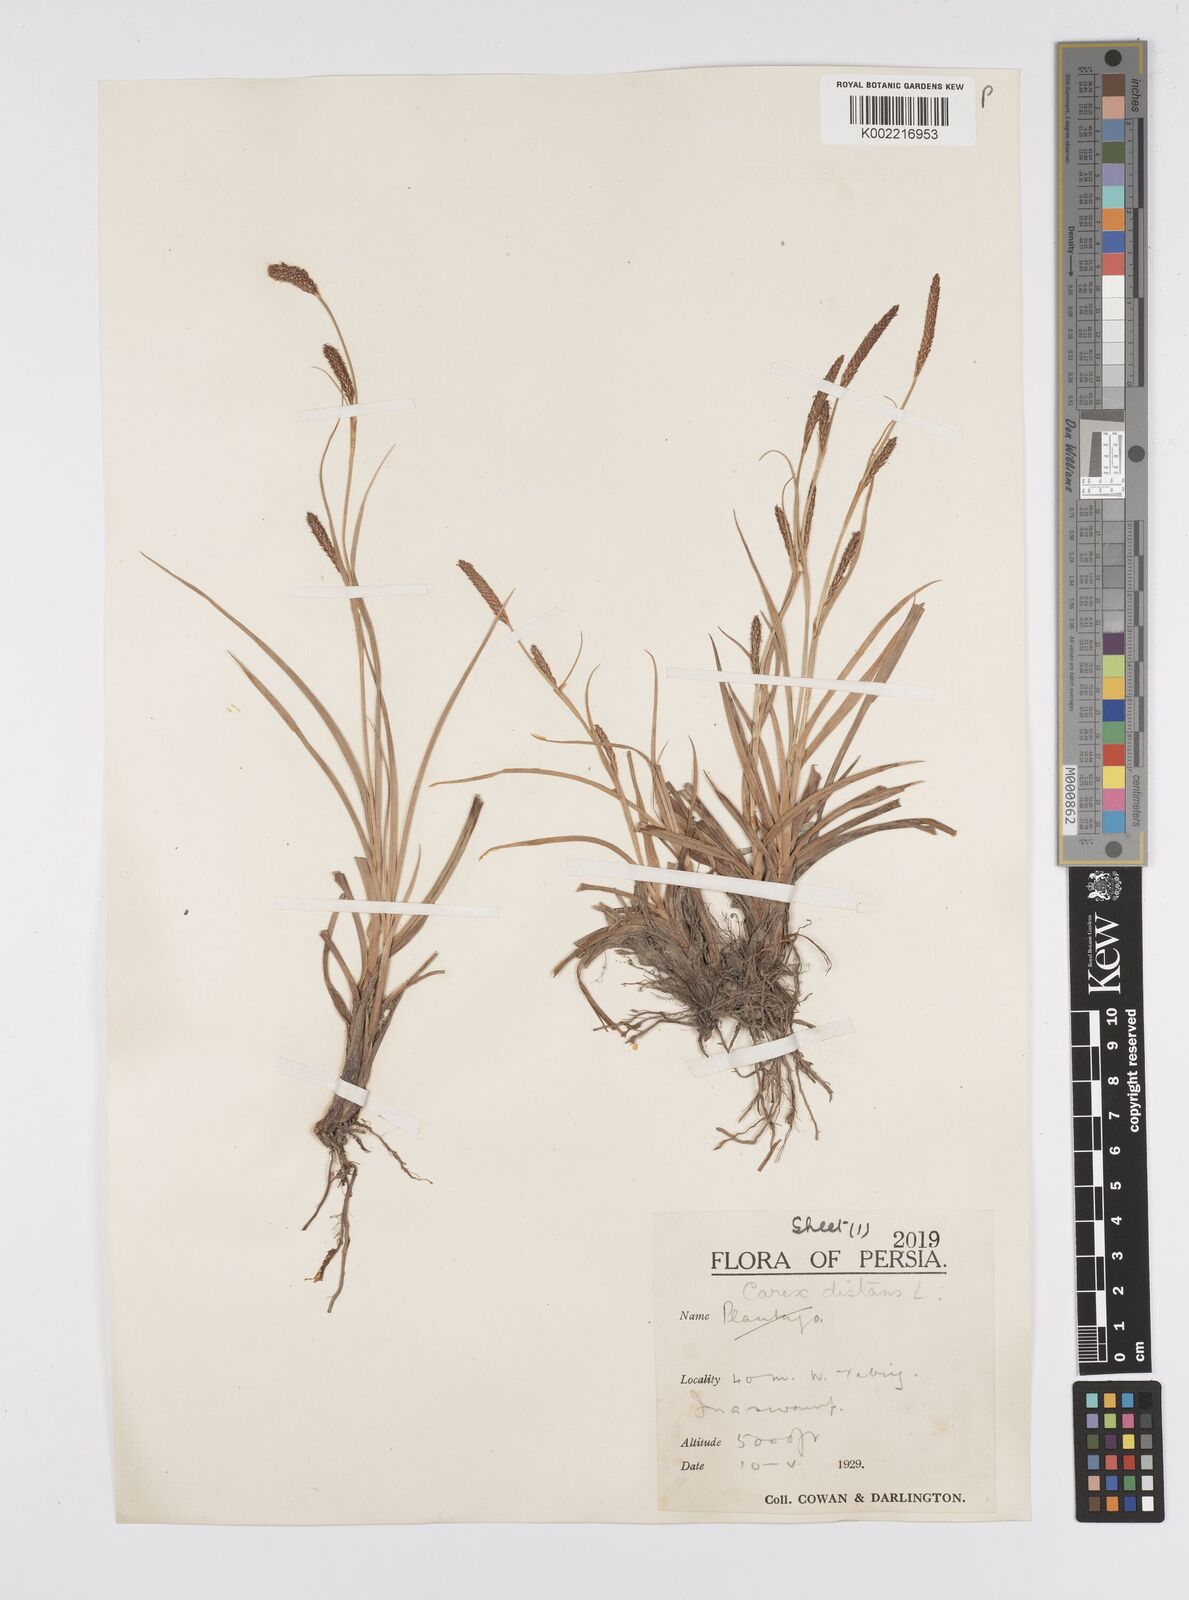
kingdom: Plantae
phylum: Tracheophyta
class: Liliopsida
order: Poales
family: Cyperaceae
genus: Carex
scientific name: Carex distans
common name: Distant sedge
